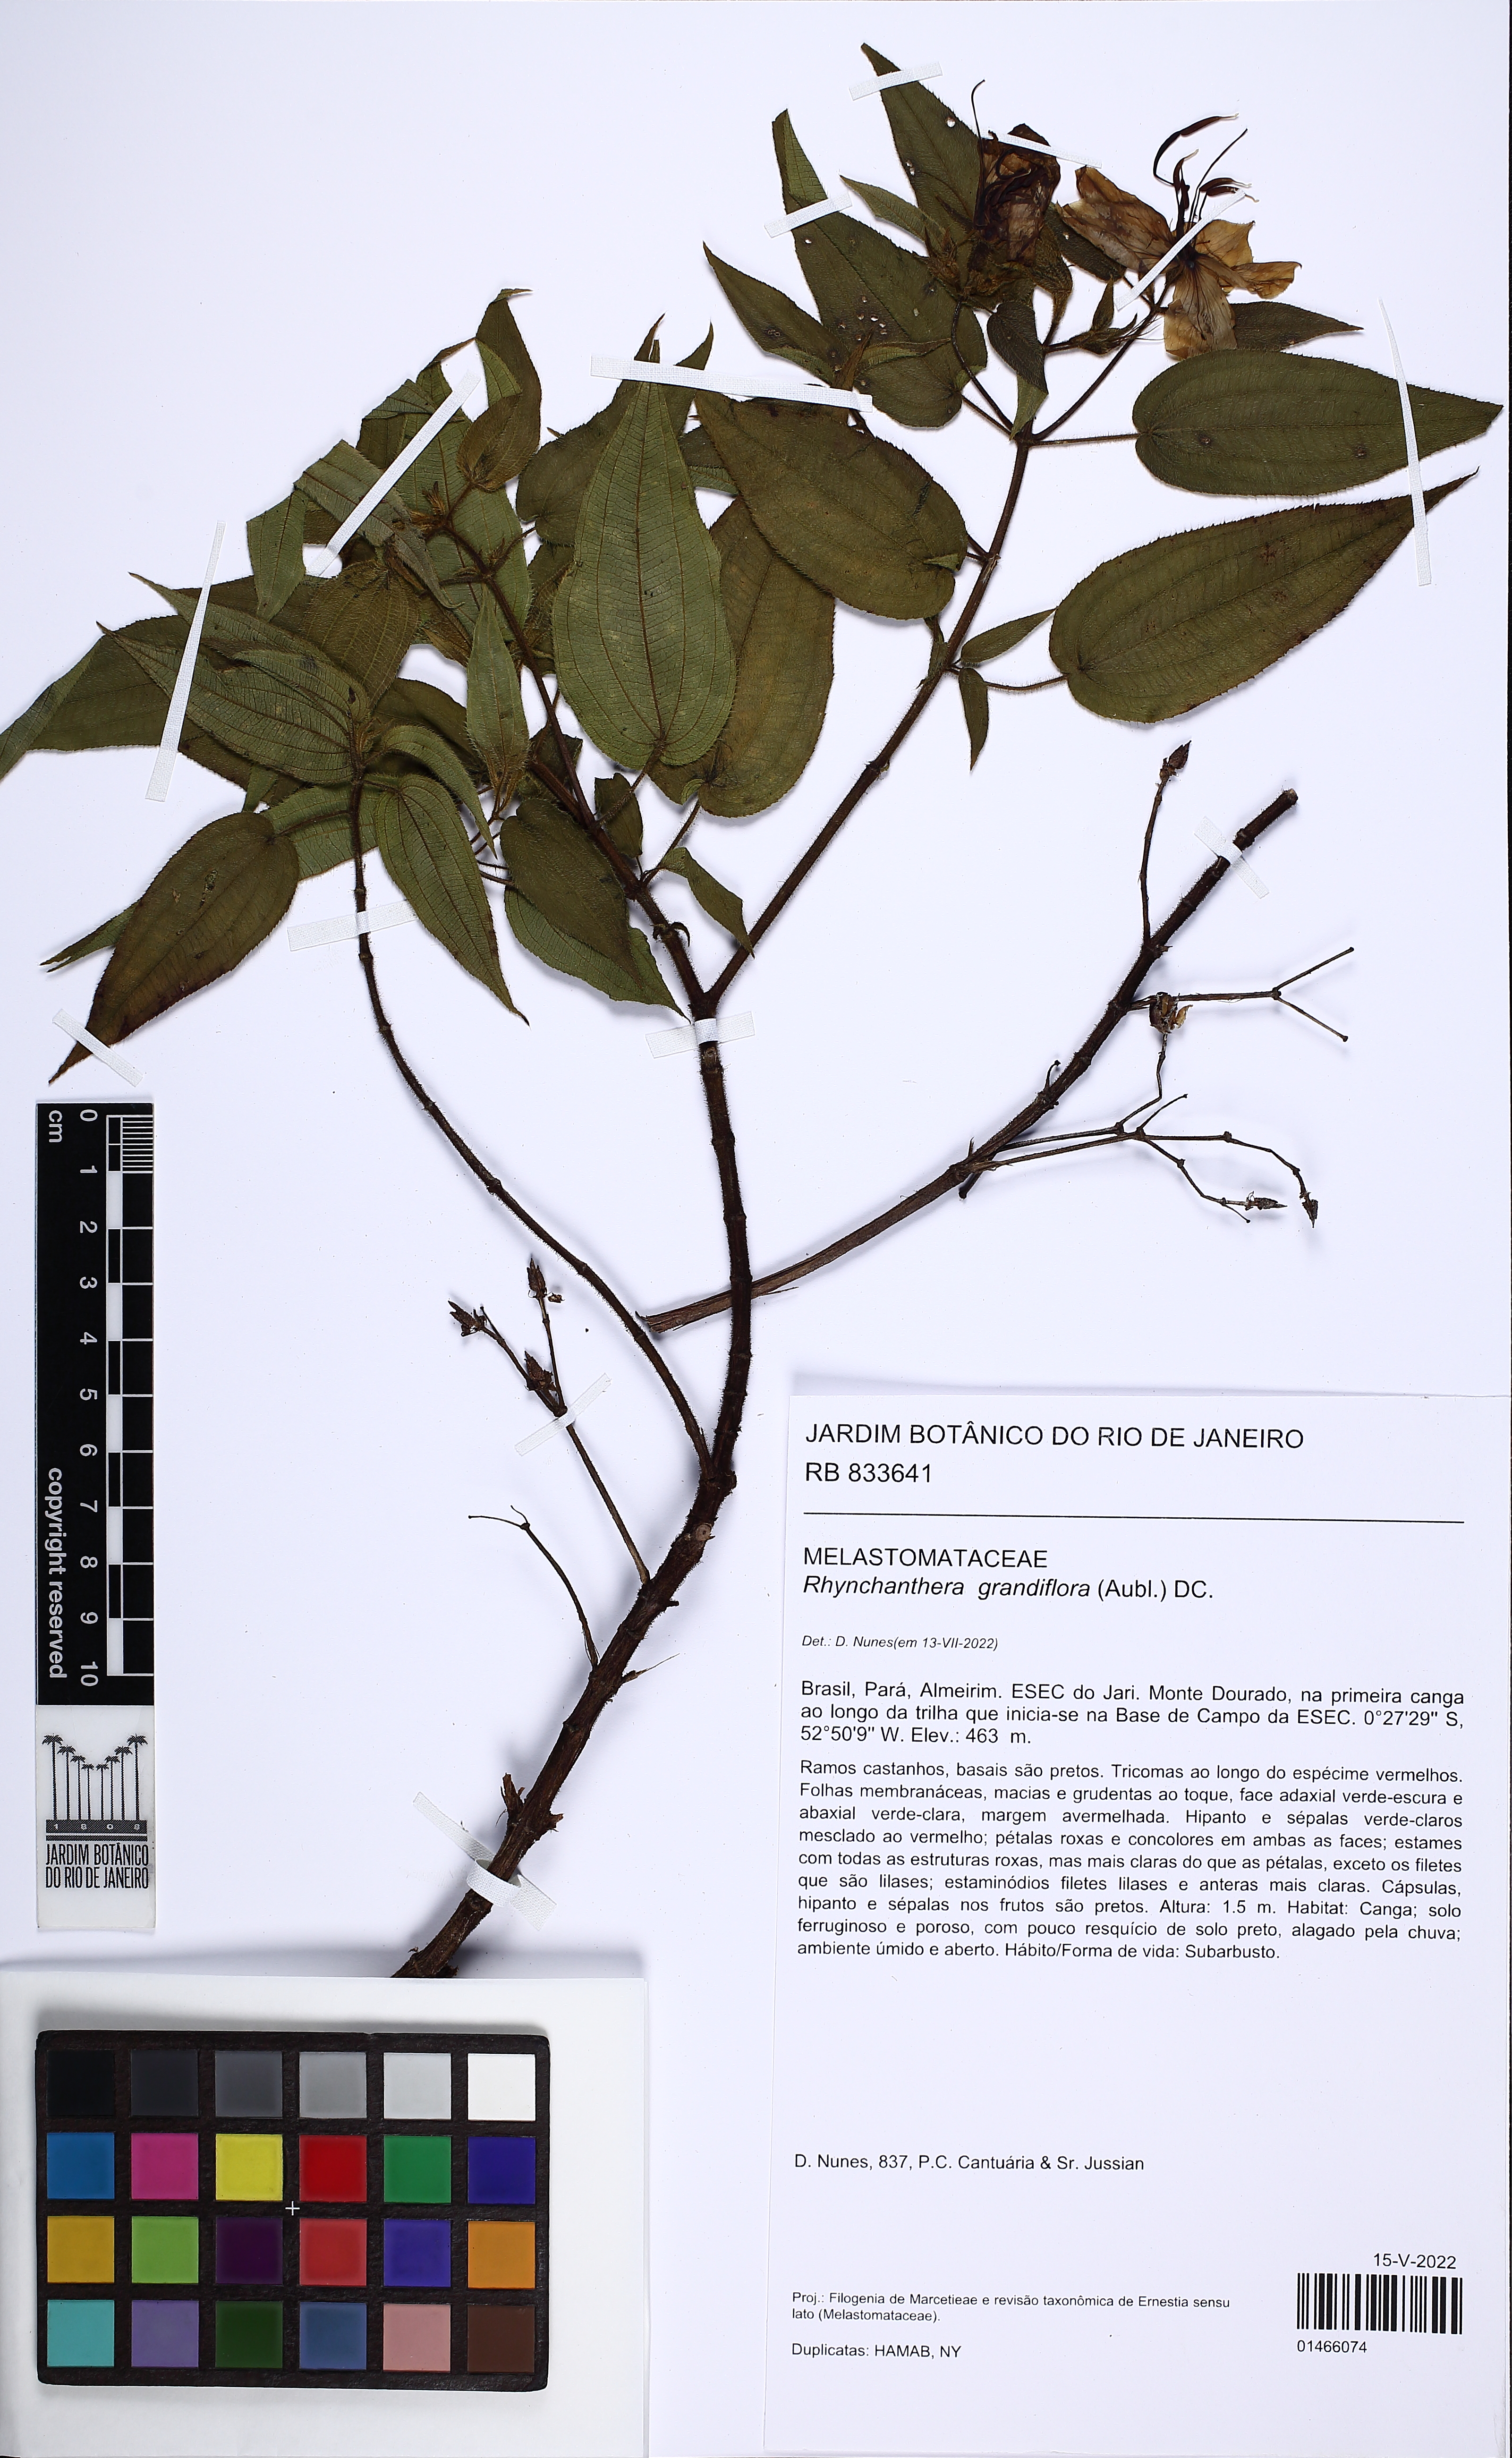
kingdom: Plantae
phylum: Tracheophyta
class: Magnoliopsida
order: Myrtales
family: Melastomataceae
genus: Rhynchanthera
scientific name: Rhynchanthera grandiflora
